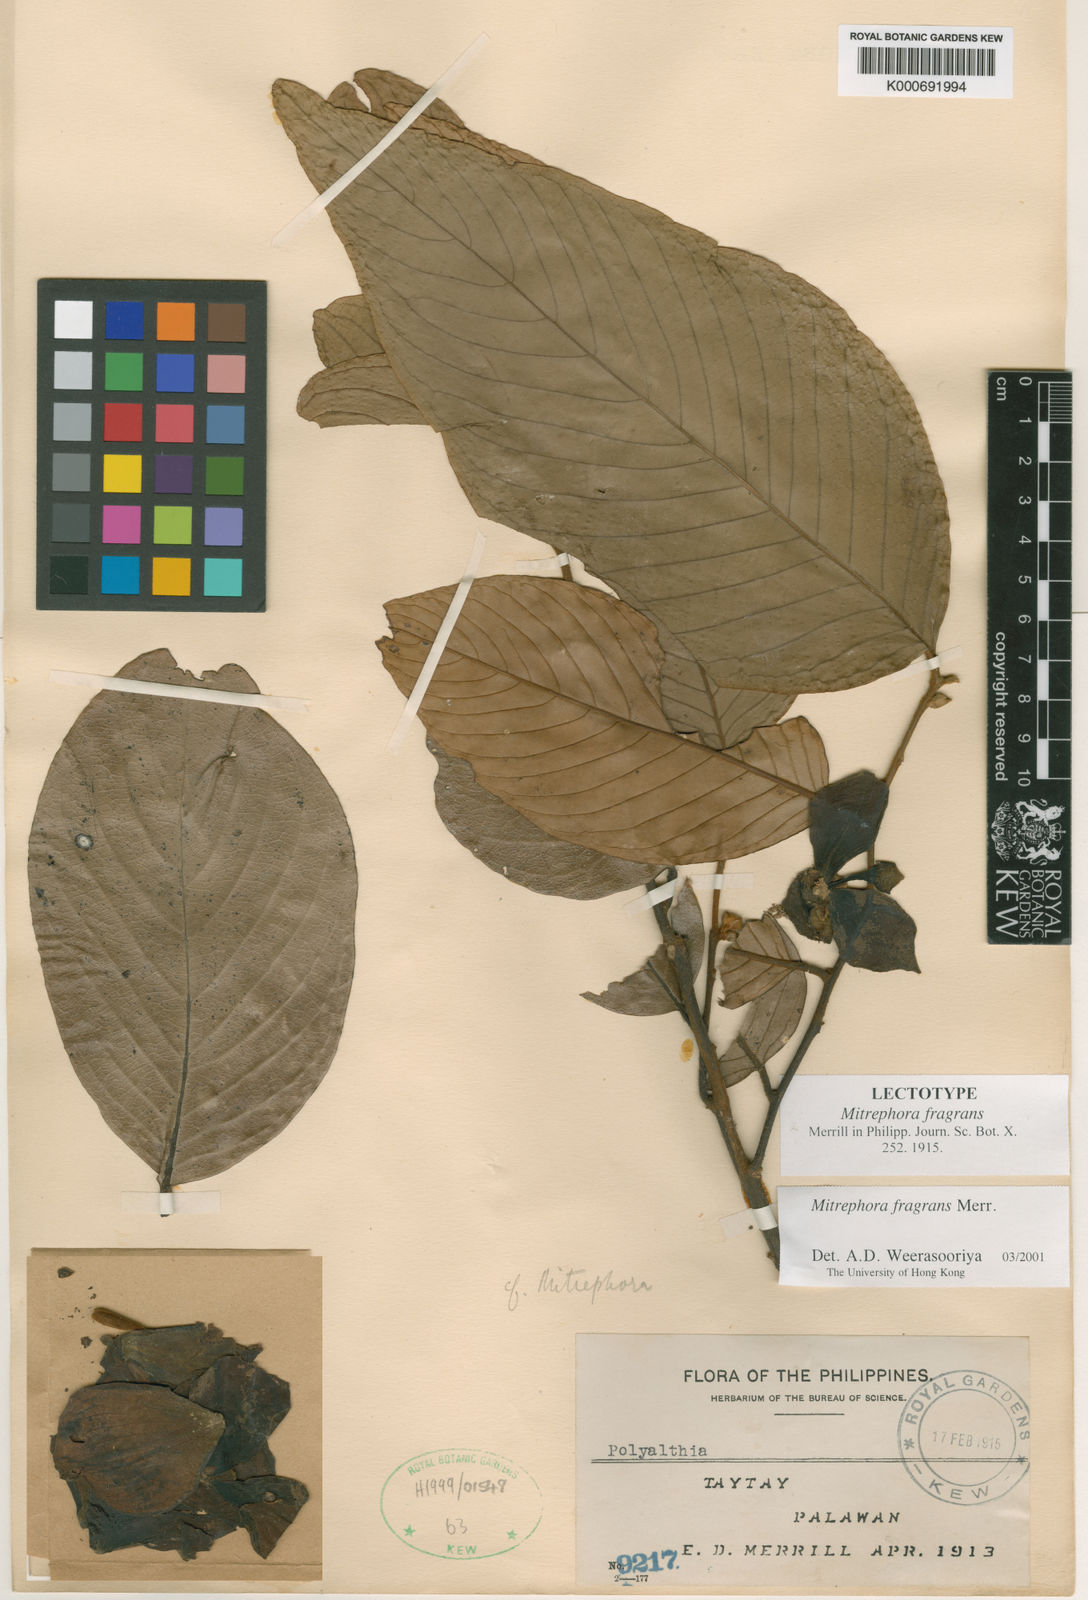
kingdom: Plantae
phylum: Tracheophyta
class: Magnoliopsida
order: Magnoliales
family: Annonaceae
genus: Mitrephora
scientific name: Mitrephora fragrans
